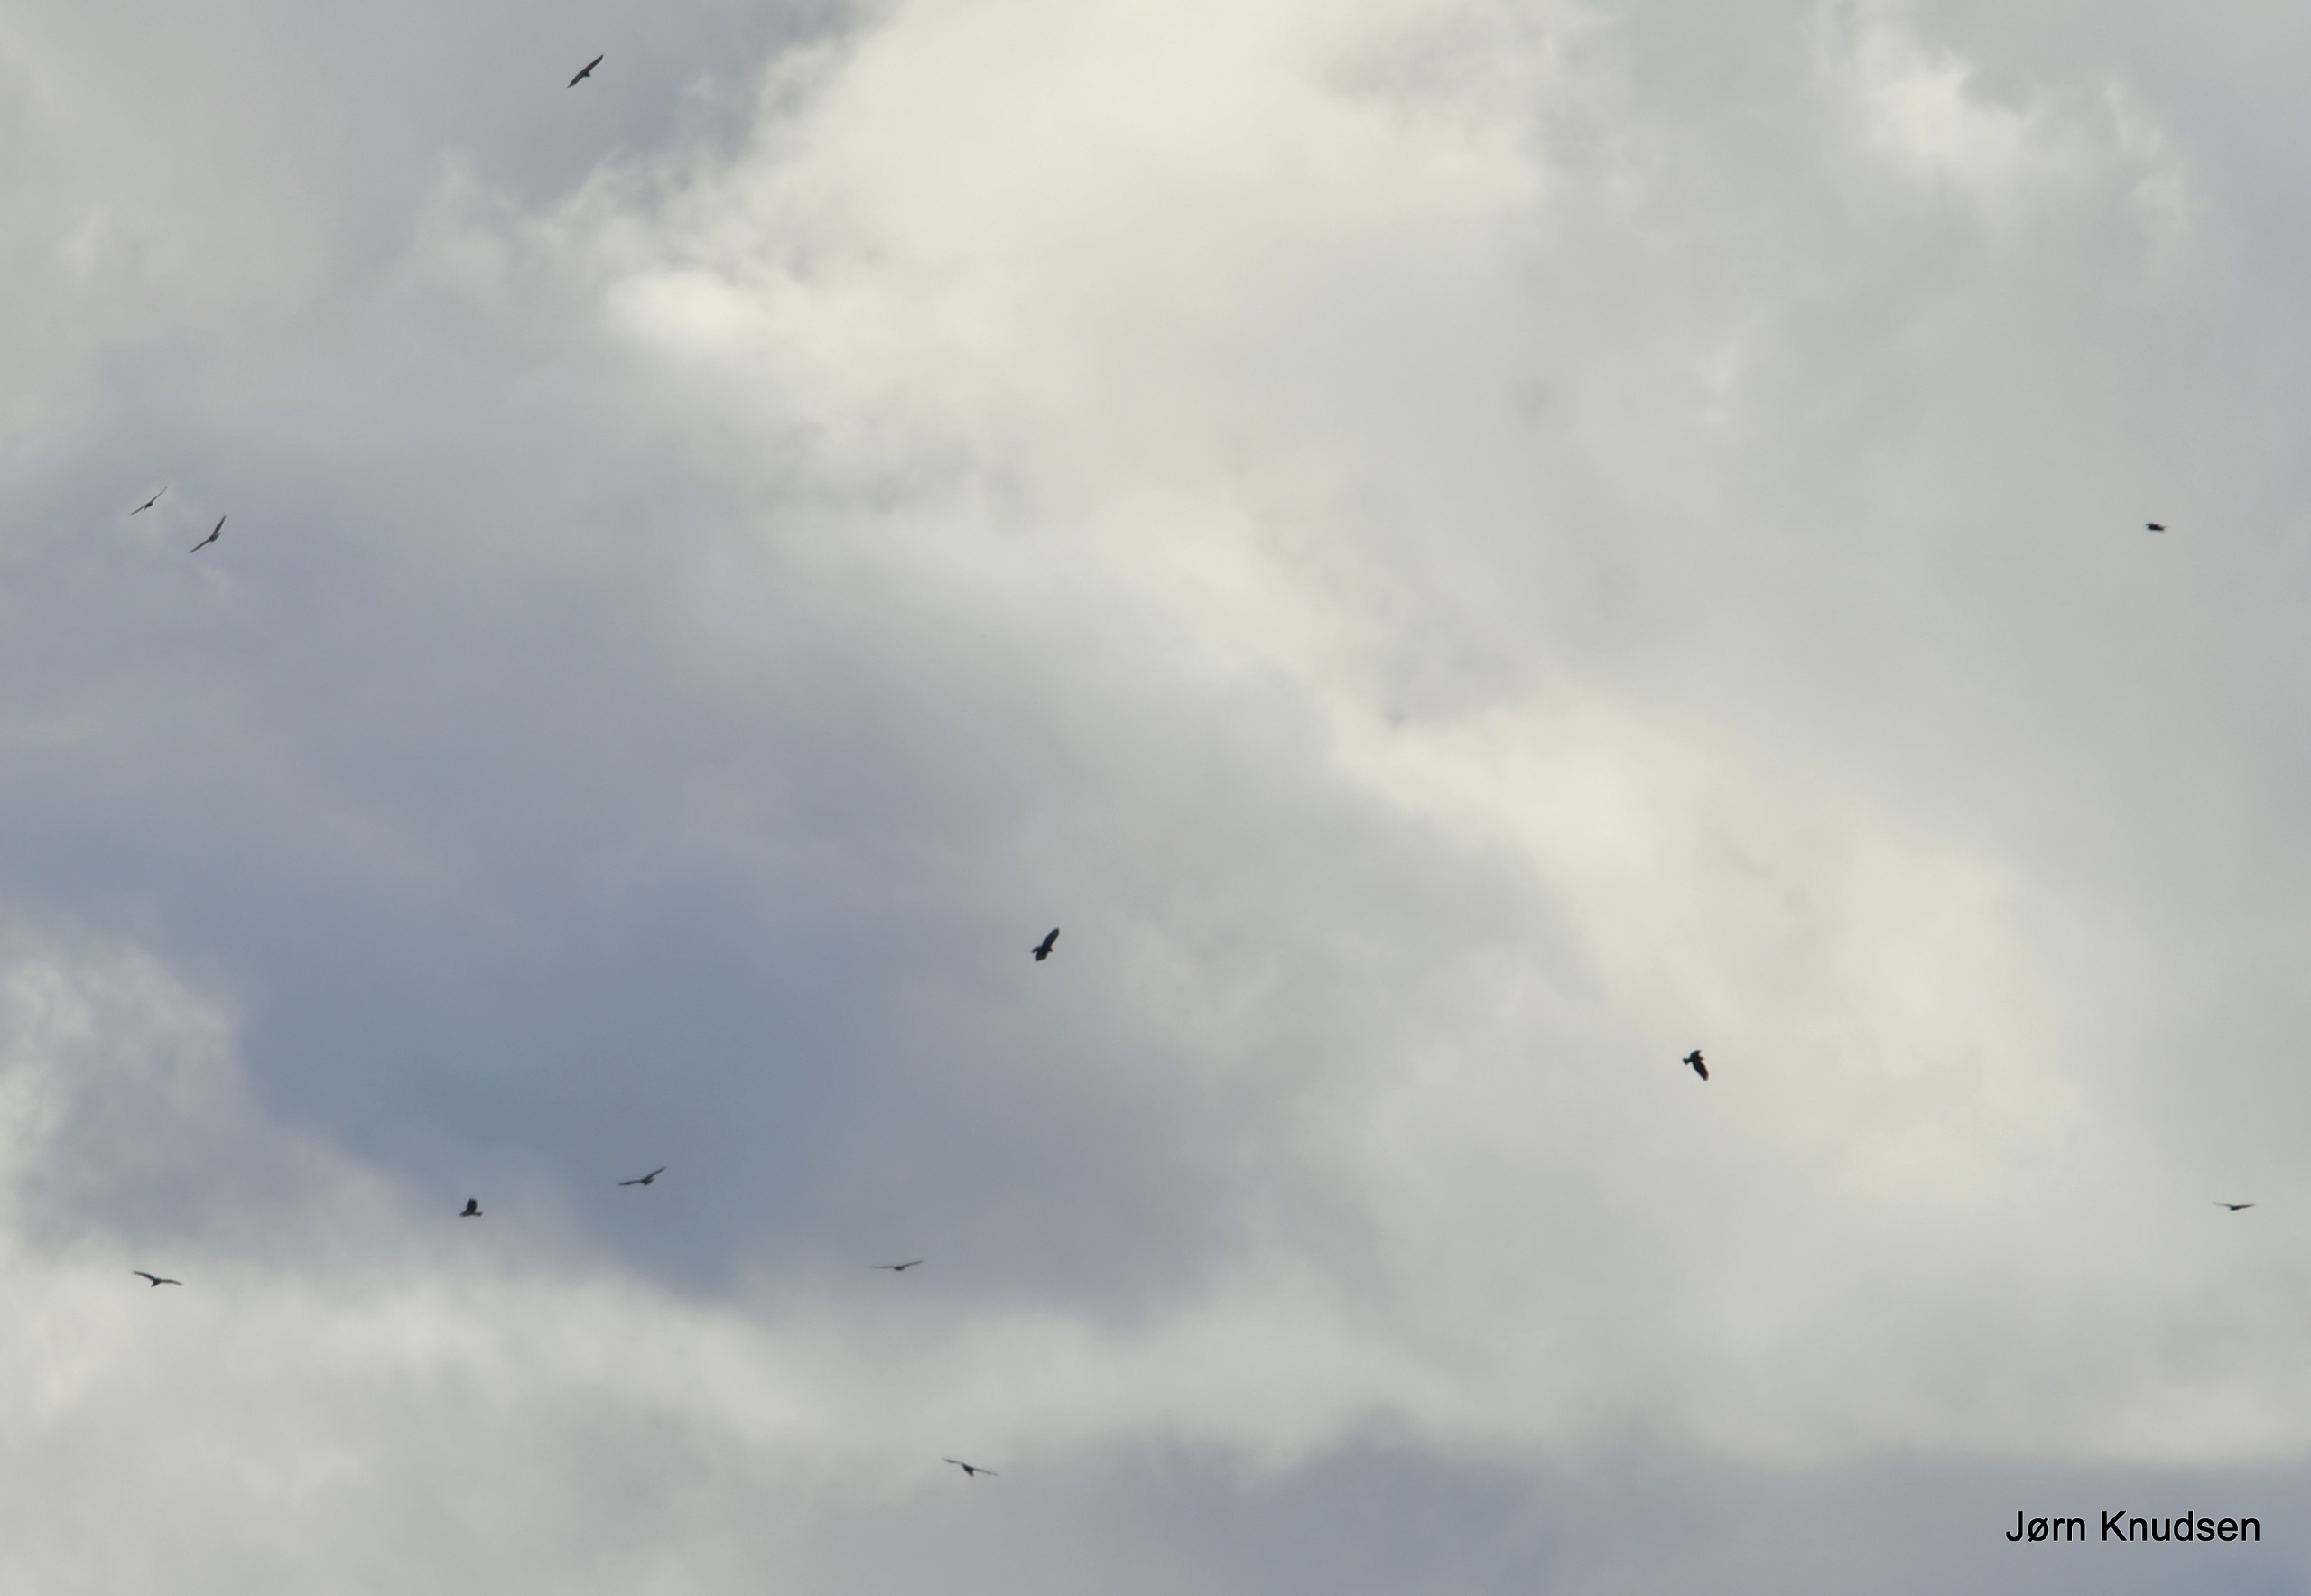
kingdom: Animalia
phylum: Chordata
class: Aves
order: Accipitriformes
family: Accipitridae
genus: Buteo
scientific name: Buteo buteo
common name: Musvåge
